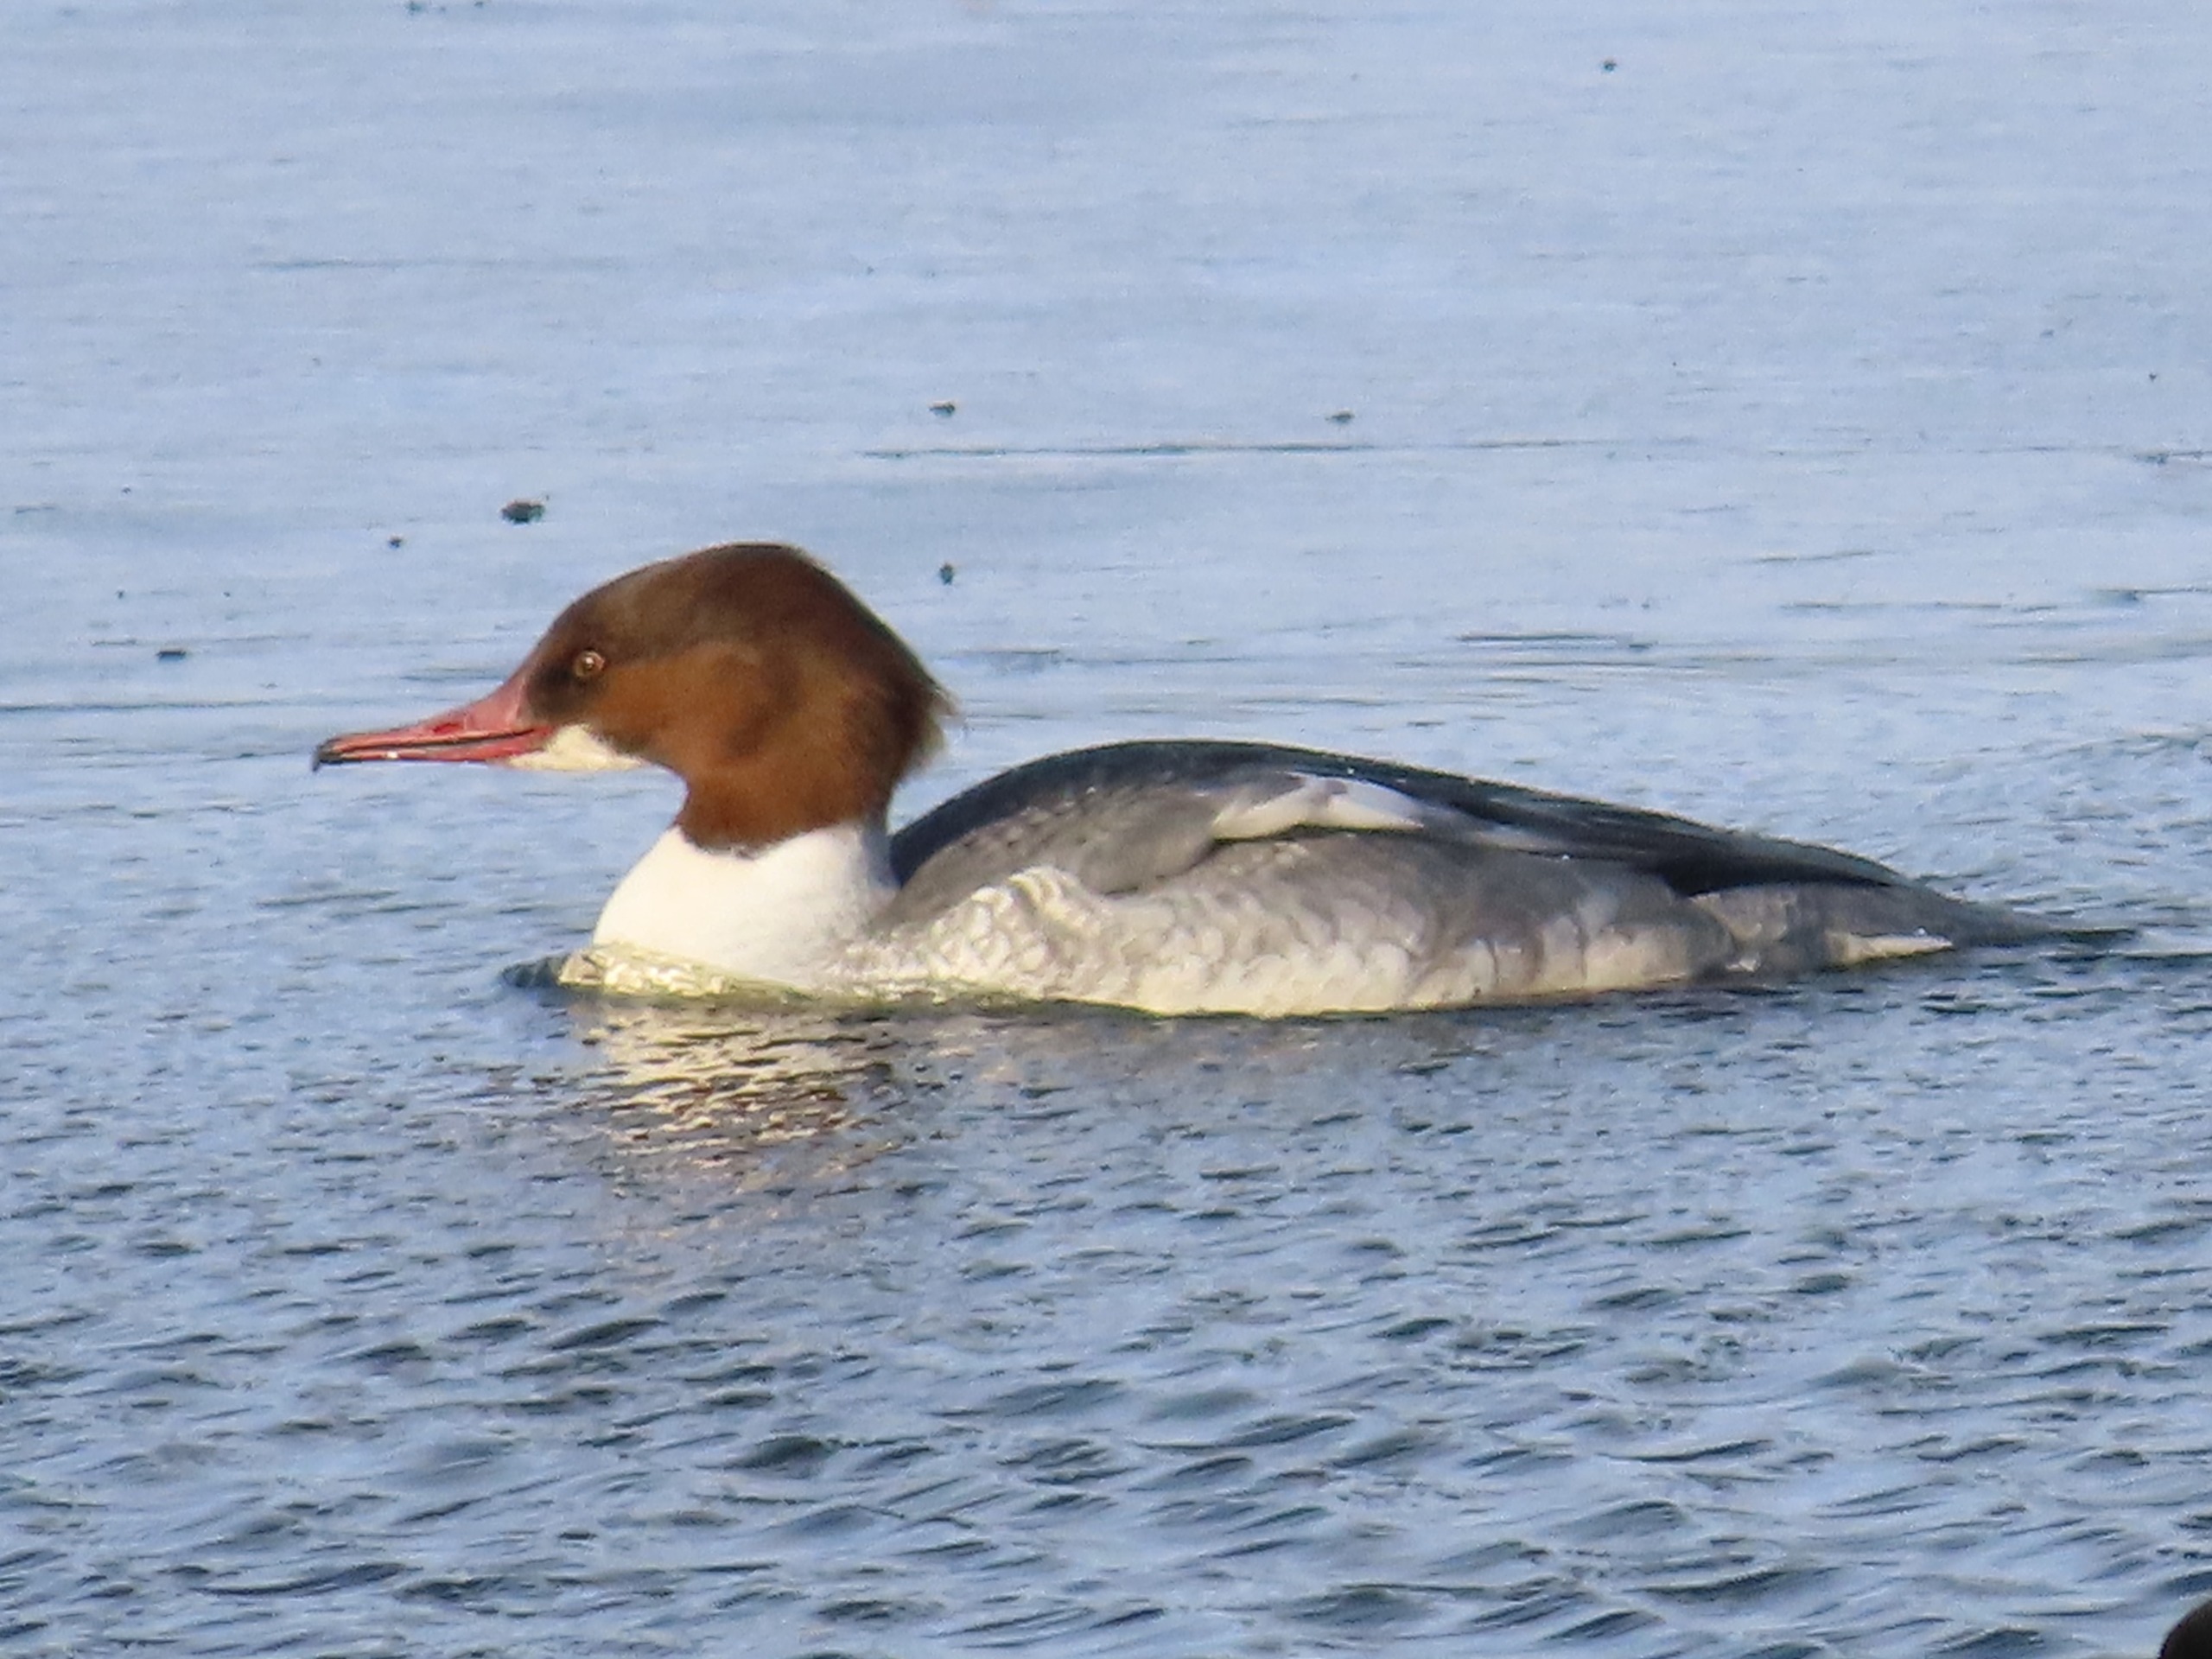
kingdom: Animalia
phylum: Chordata
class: Aves
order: Anseriformes
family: Anatidae
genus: Mergus
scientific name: Mergus merganser
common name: Stor skallesluger
